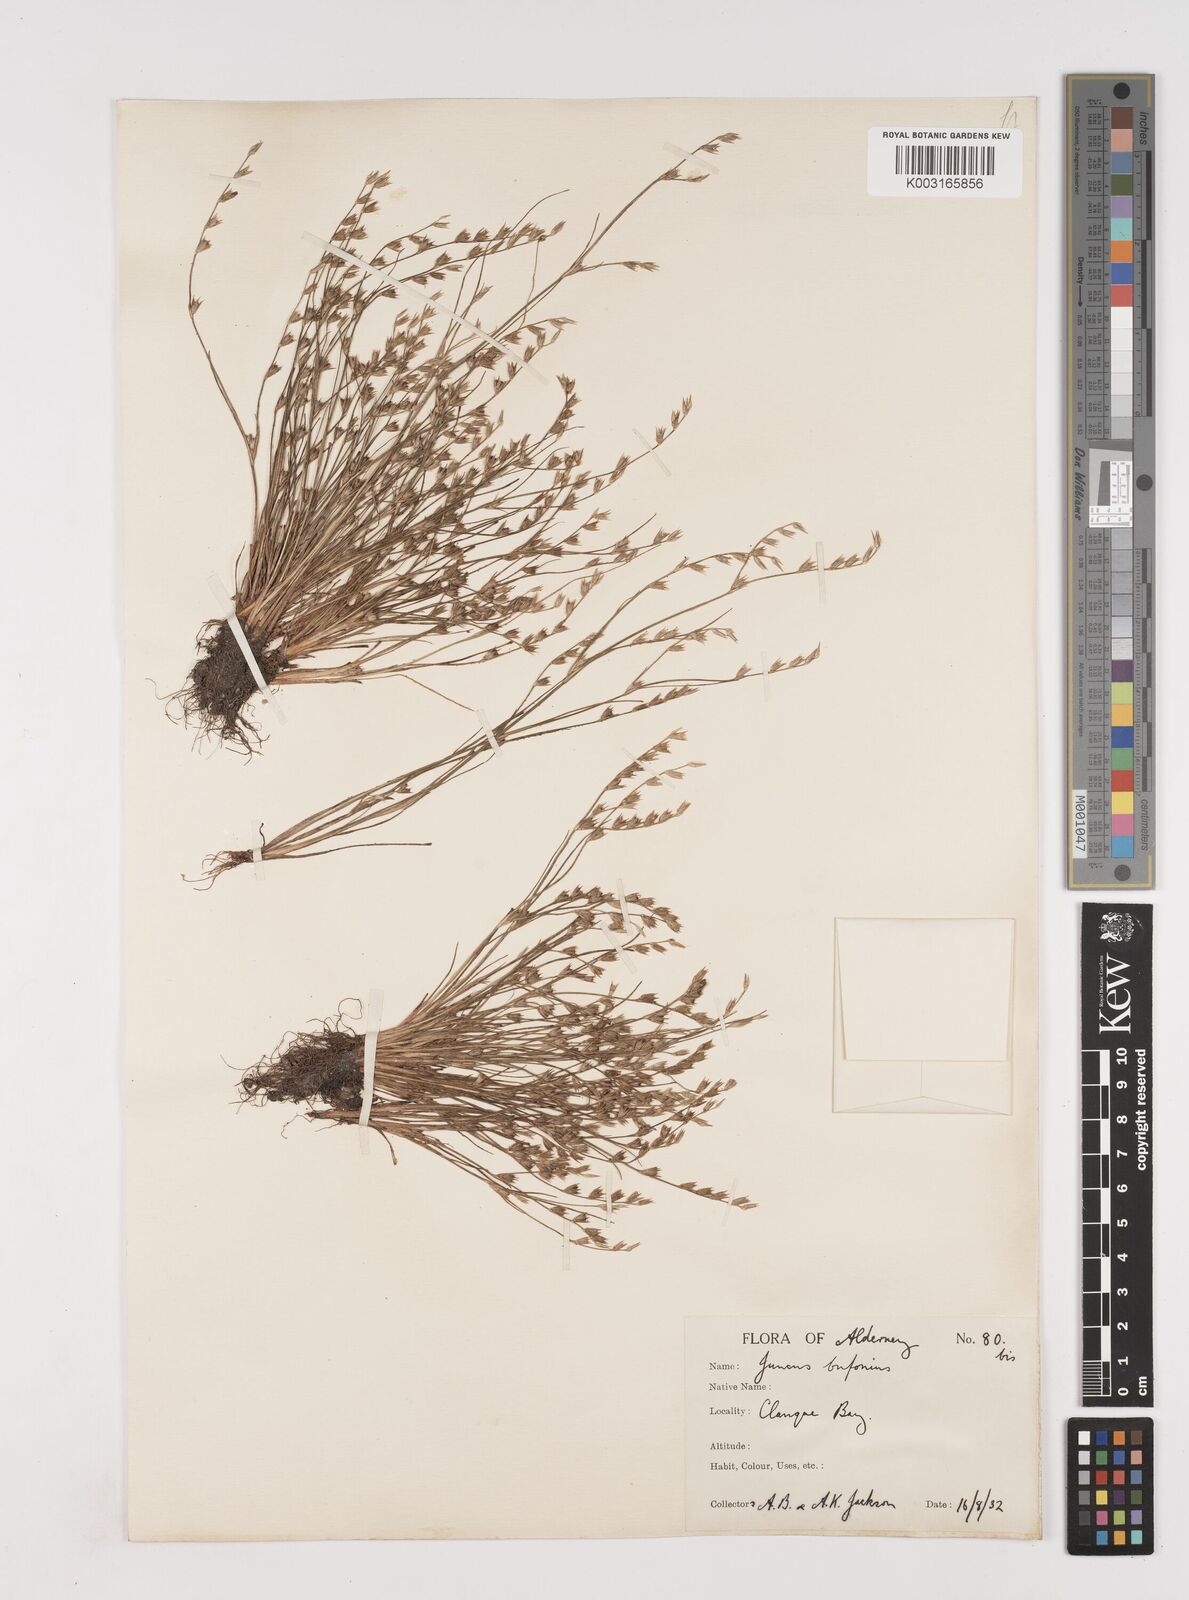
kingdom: Plantae
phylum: Tracheophyta
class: Liliopsida
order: Poales
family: Juncaceae
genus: Juncus
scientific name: Juncus bufonius
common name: Toad rush
